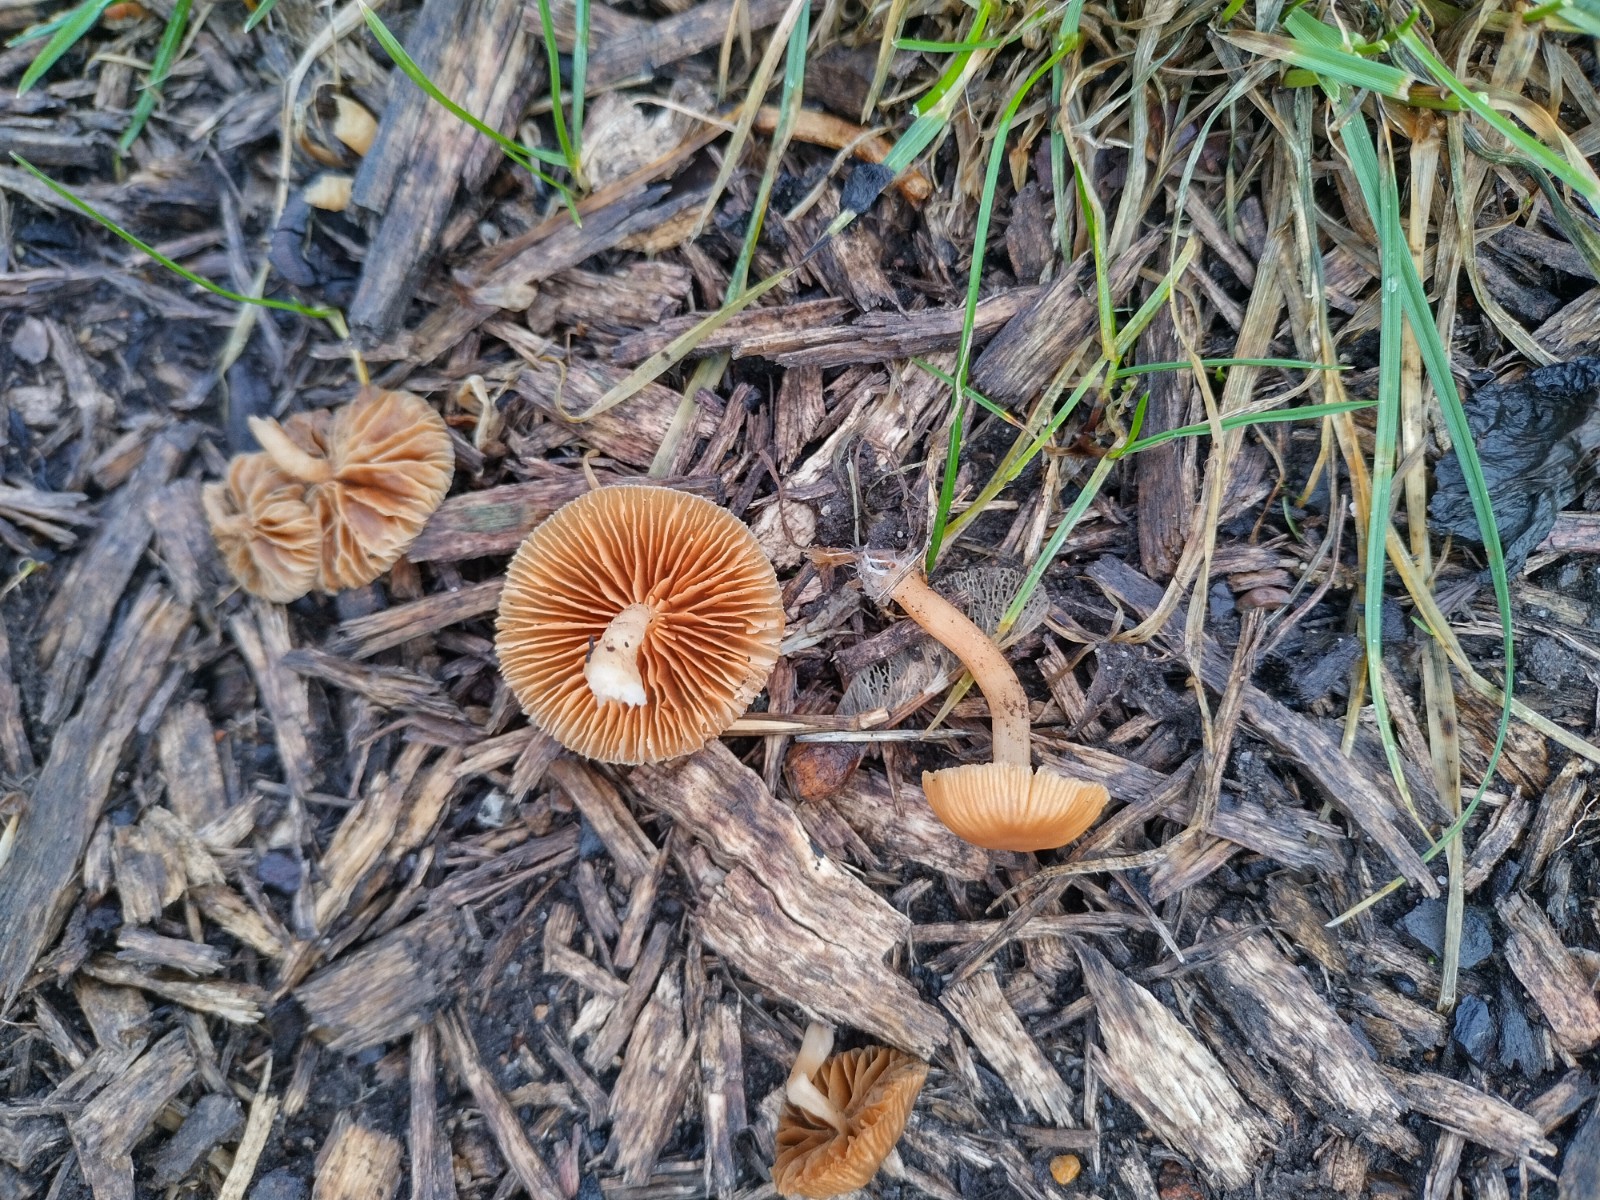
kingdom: Fungi
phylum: Basidiomycota
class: Agaricomycetes
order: Agaricales
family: Tubariaceae
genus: Tubaria
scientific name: Tubaria furfuracea
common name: kliddet fnughat
